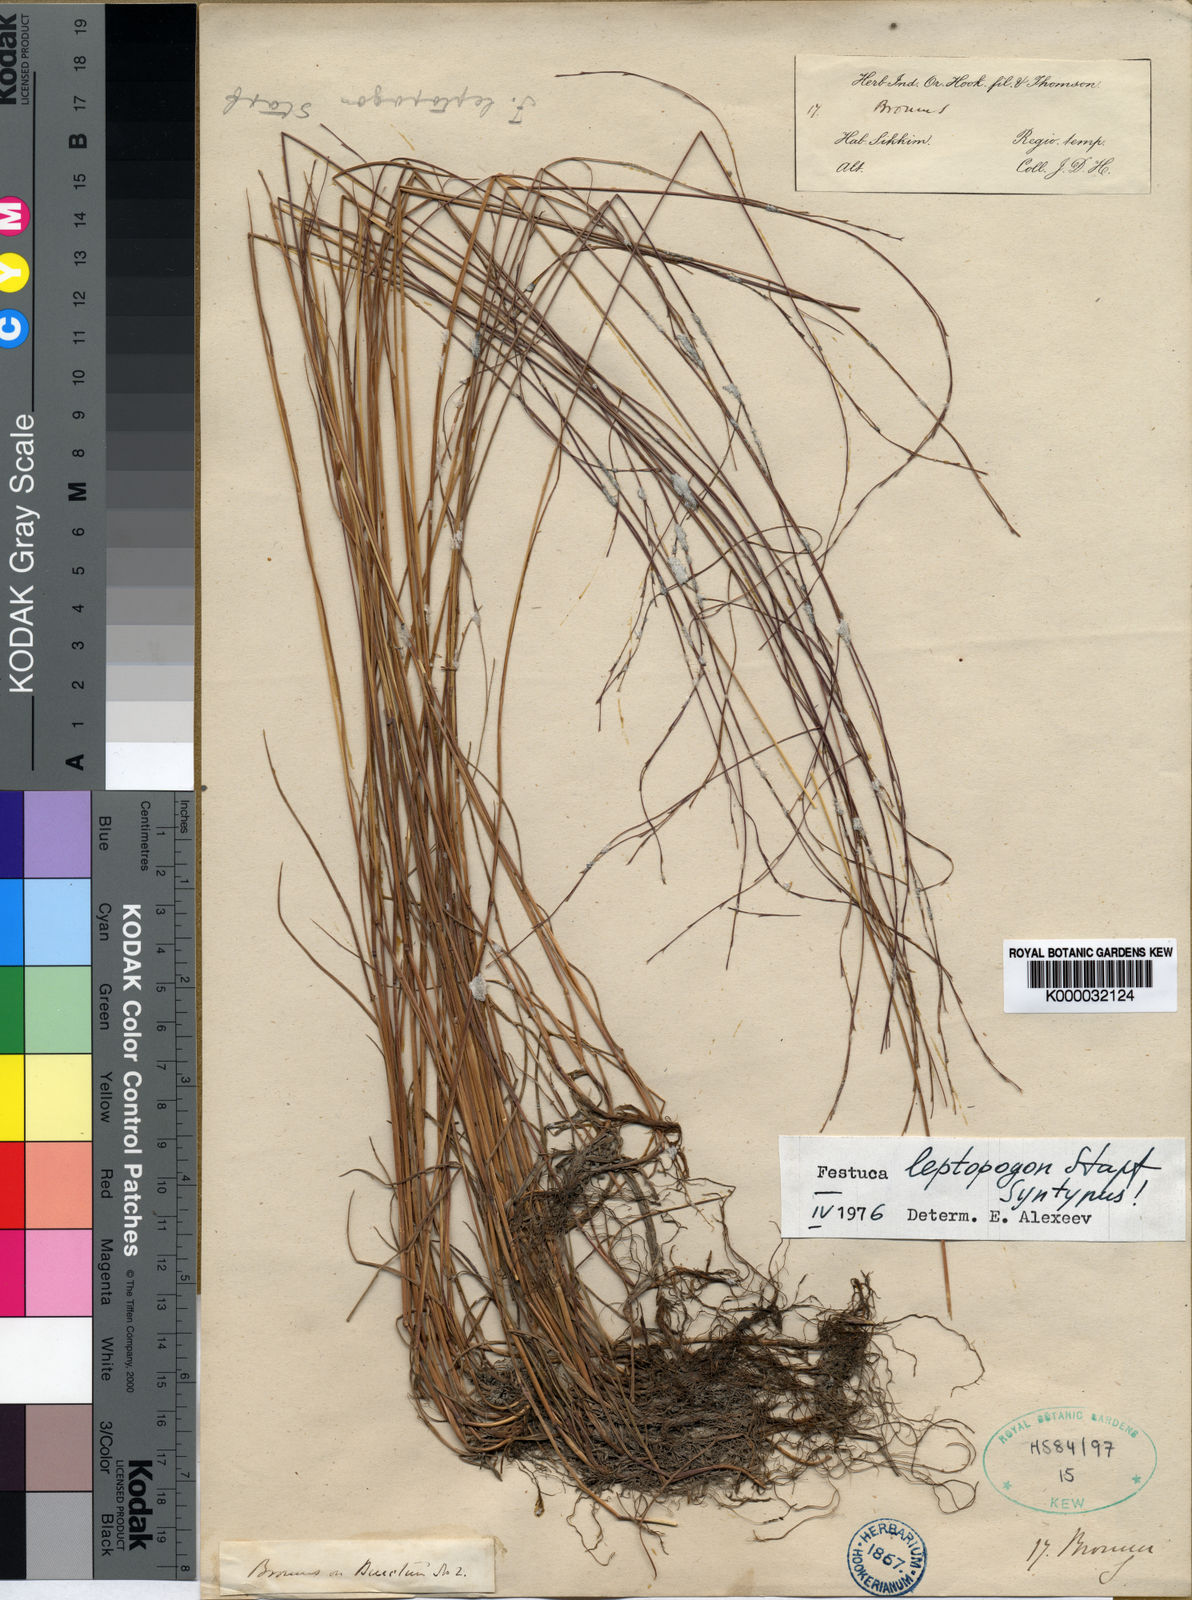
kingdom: Plantae
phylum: Tracheophyta
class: Liliopsida
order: Poales
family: Poaceae
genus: Festuca
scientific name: Festuca leptopogon
